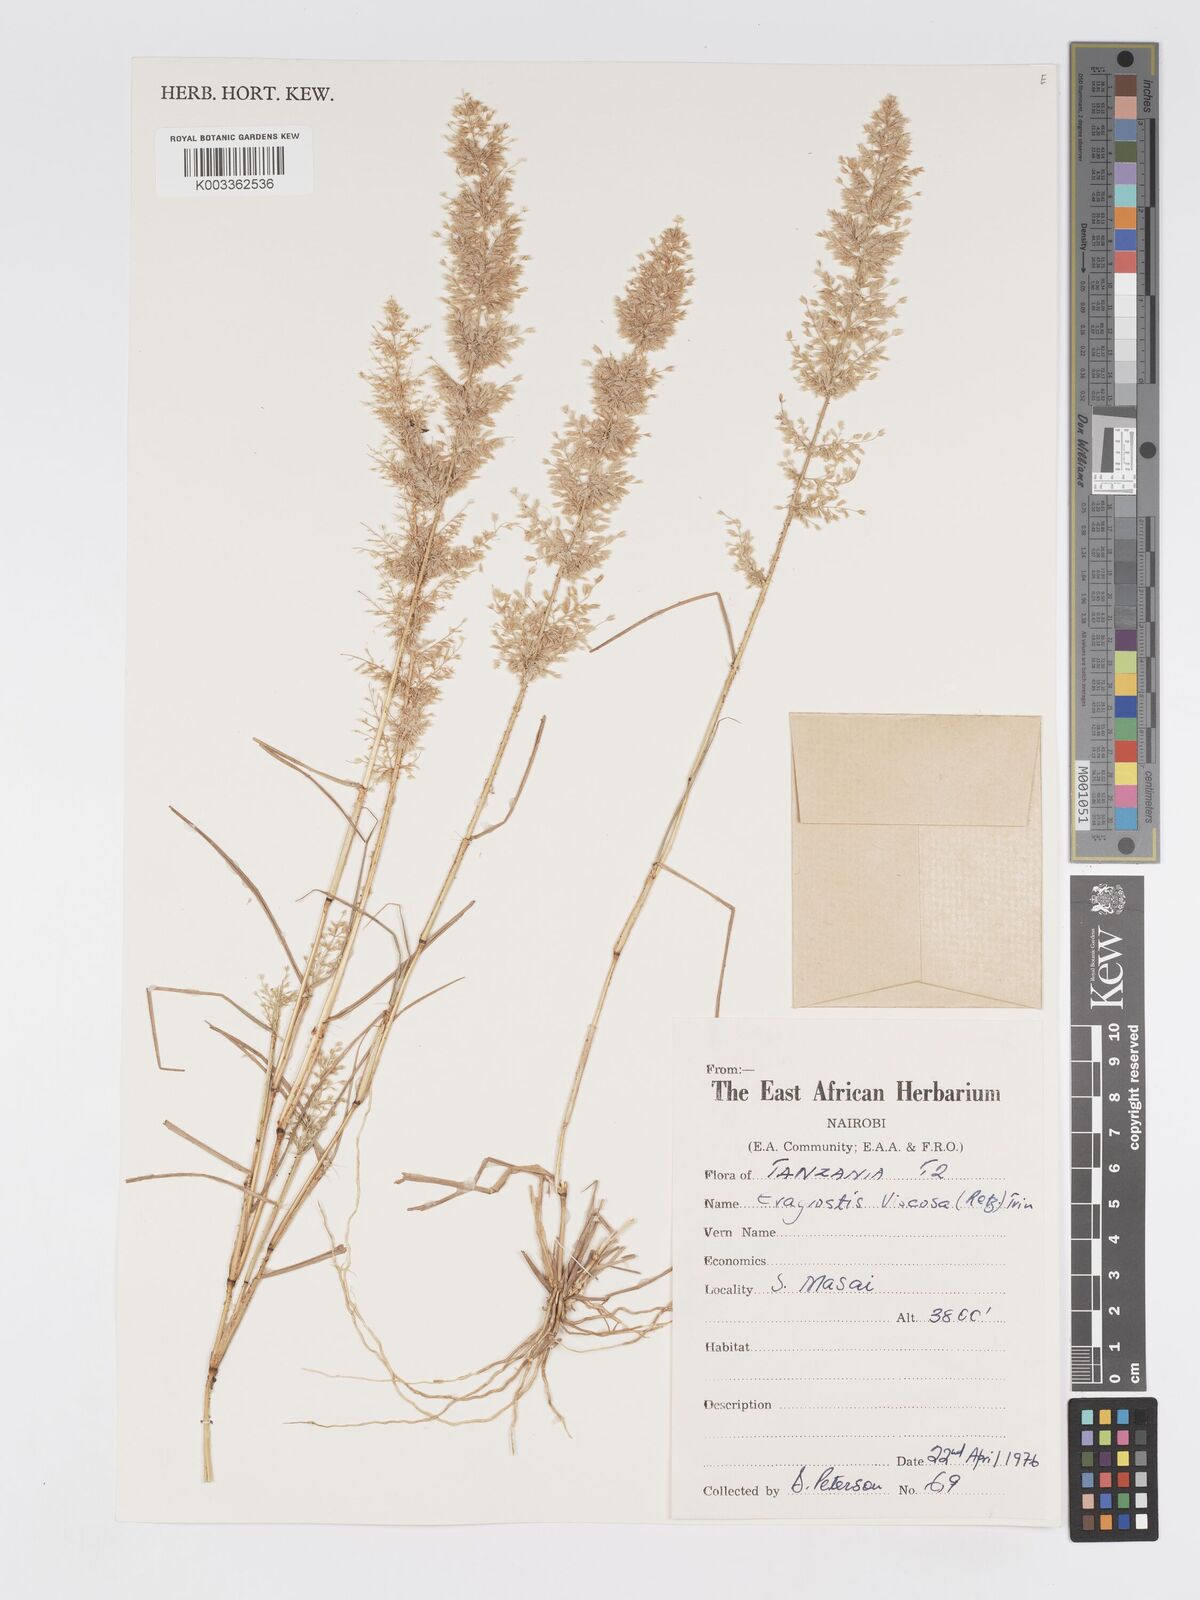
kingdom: Plantae
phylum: Tracheophyta
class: Liliopsida
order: Poales
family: Poaceae
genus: Eragrostis
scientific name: Eragrostis viscosa
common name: Sticky love grass
